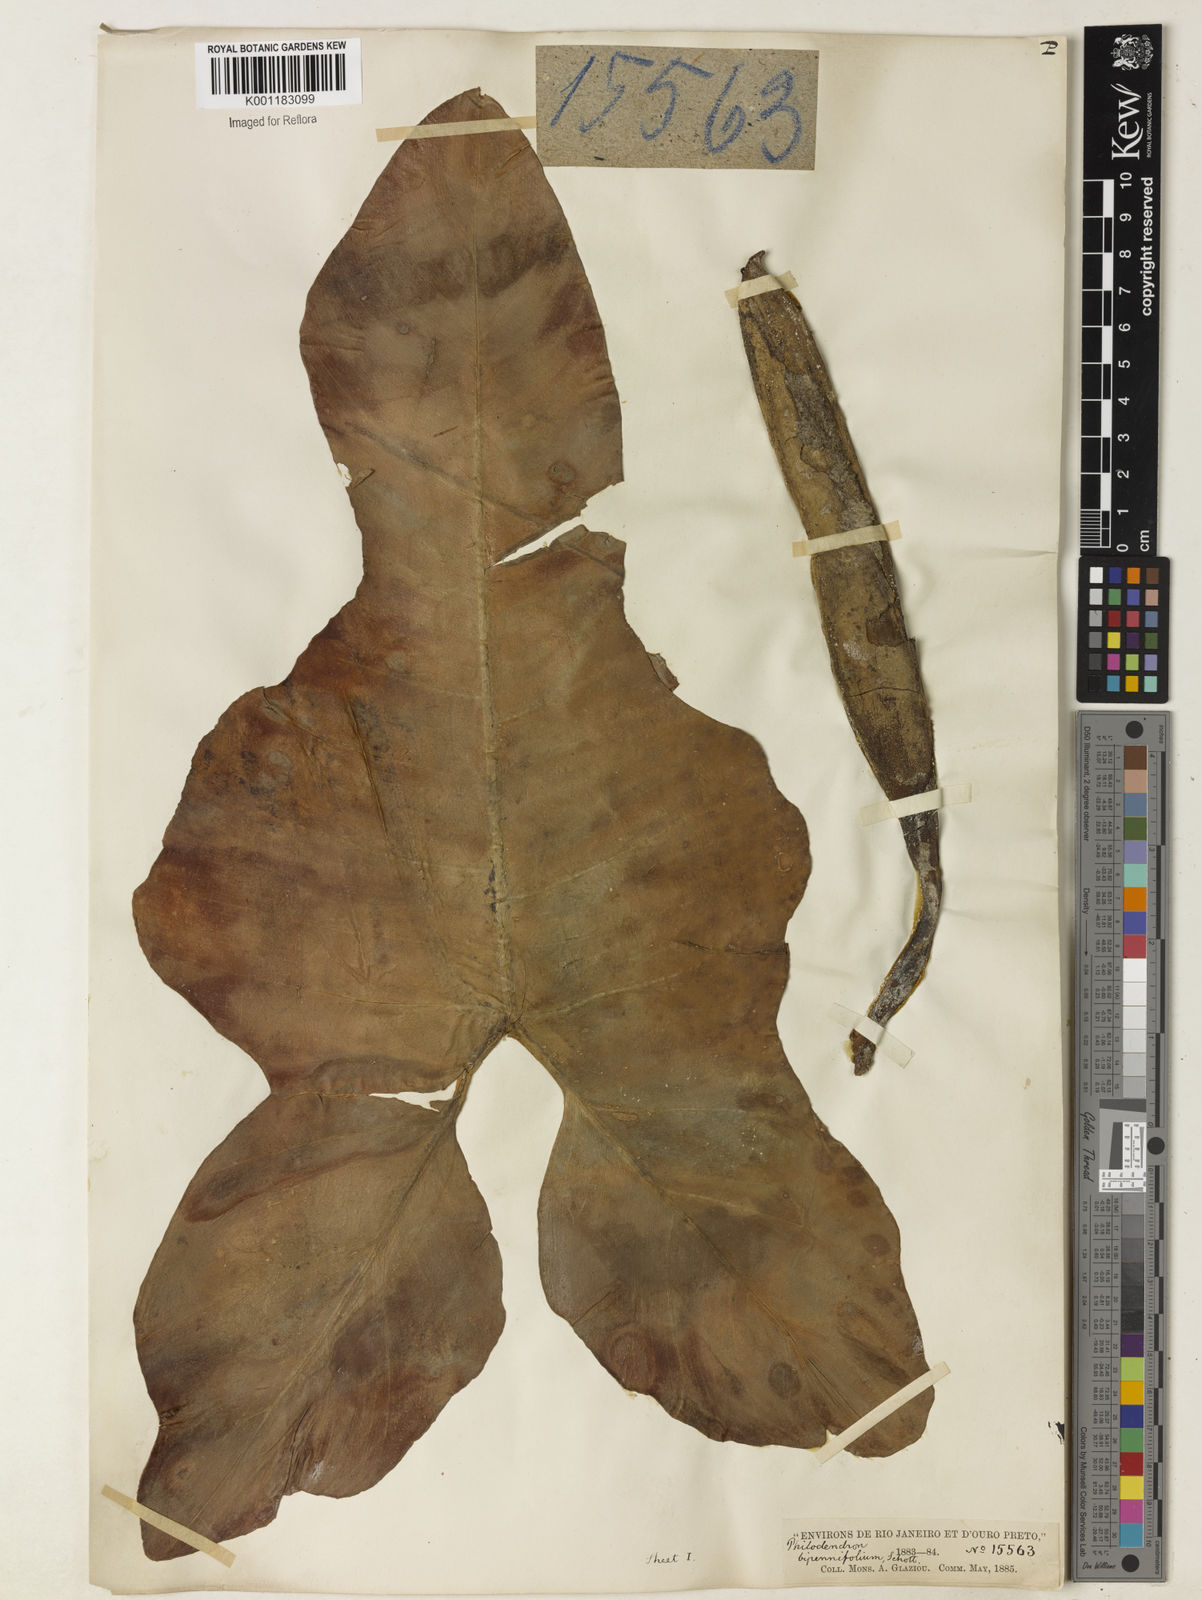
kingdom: Plantae
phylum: Tracheophyta
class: Liliopsida
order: Alismatales
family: Araceae
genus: Philodendron
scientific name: Philodendron bipennifolium
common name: Fiddle-leaf philodendron
